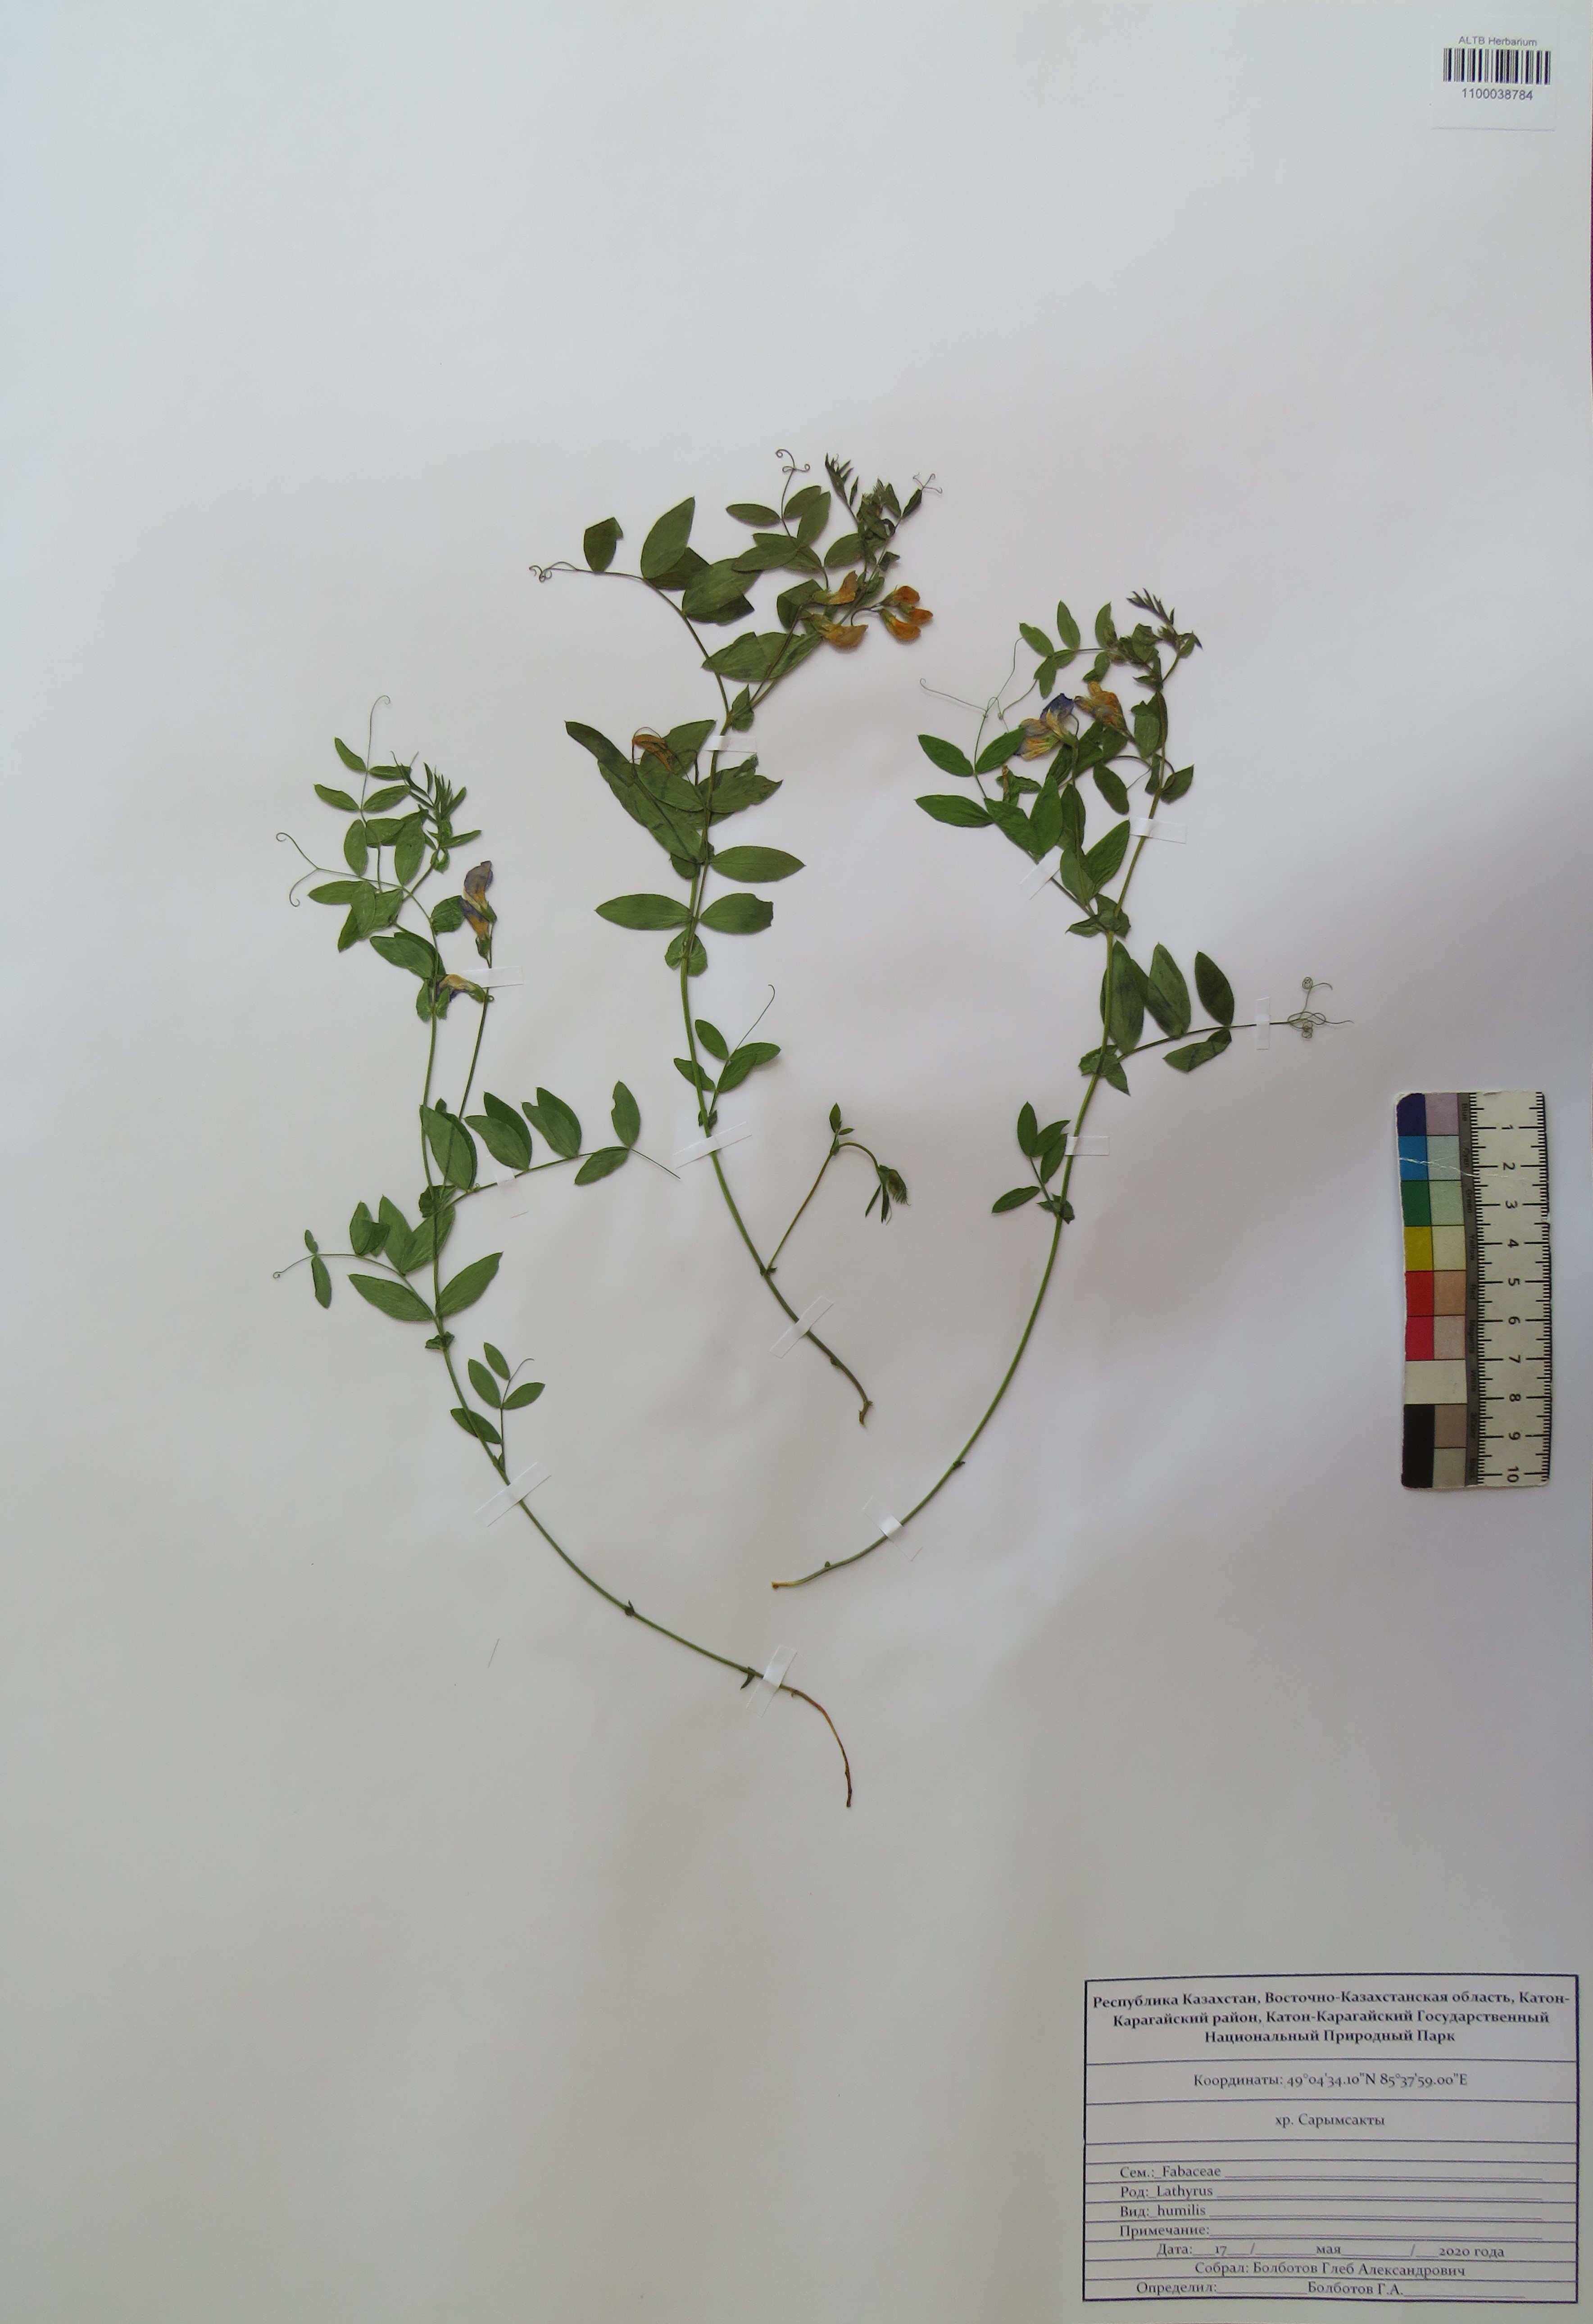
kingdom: Plantae
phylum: Tracheophyta
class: Magnoliopsida
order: Fabales
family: Fabaceae
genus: Lathyrus
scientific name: Lathyrus humilis
